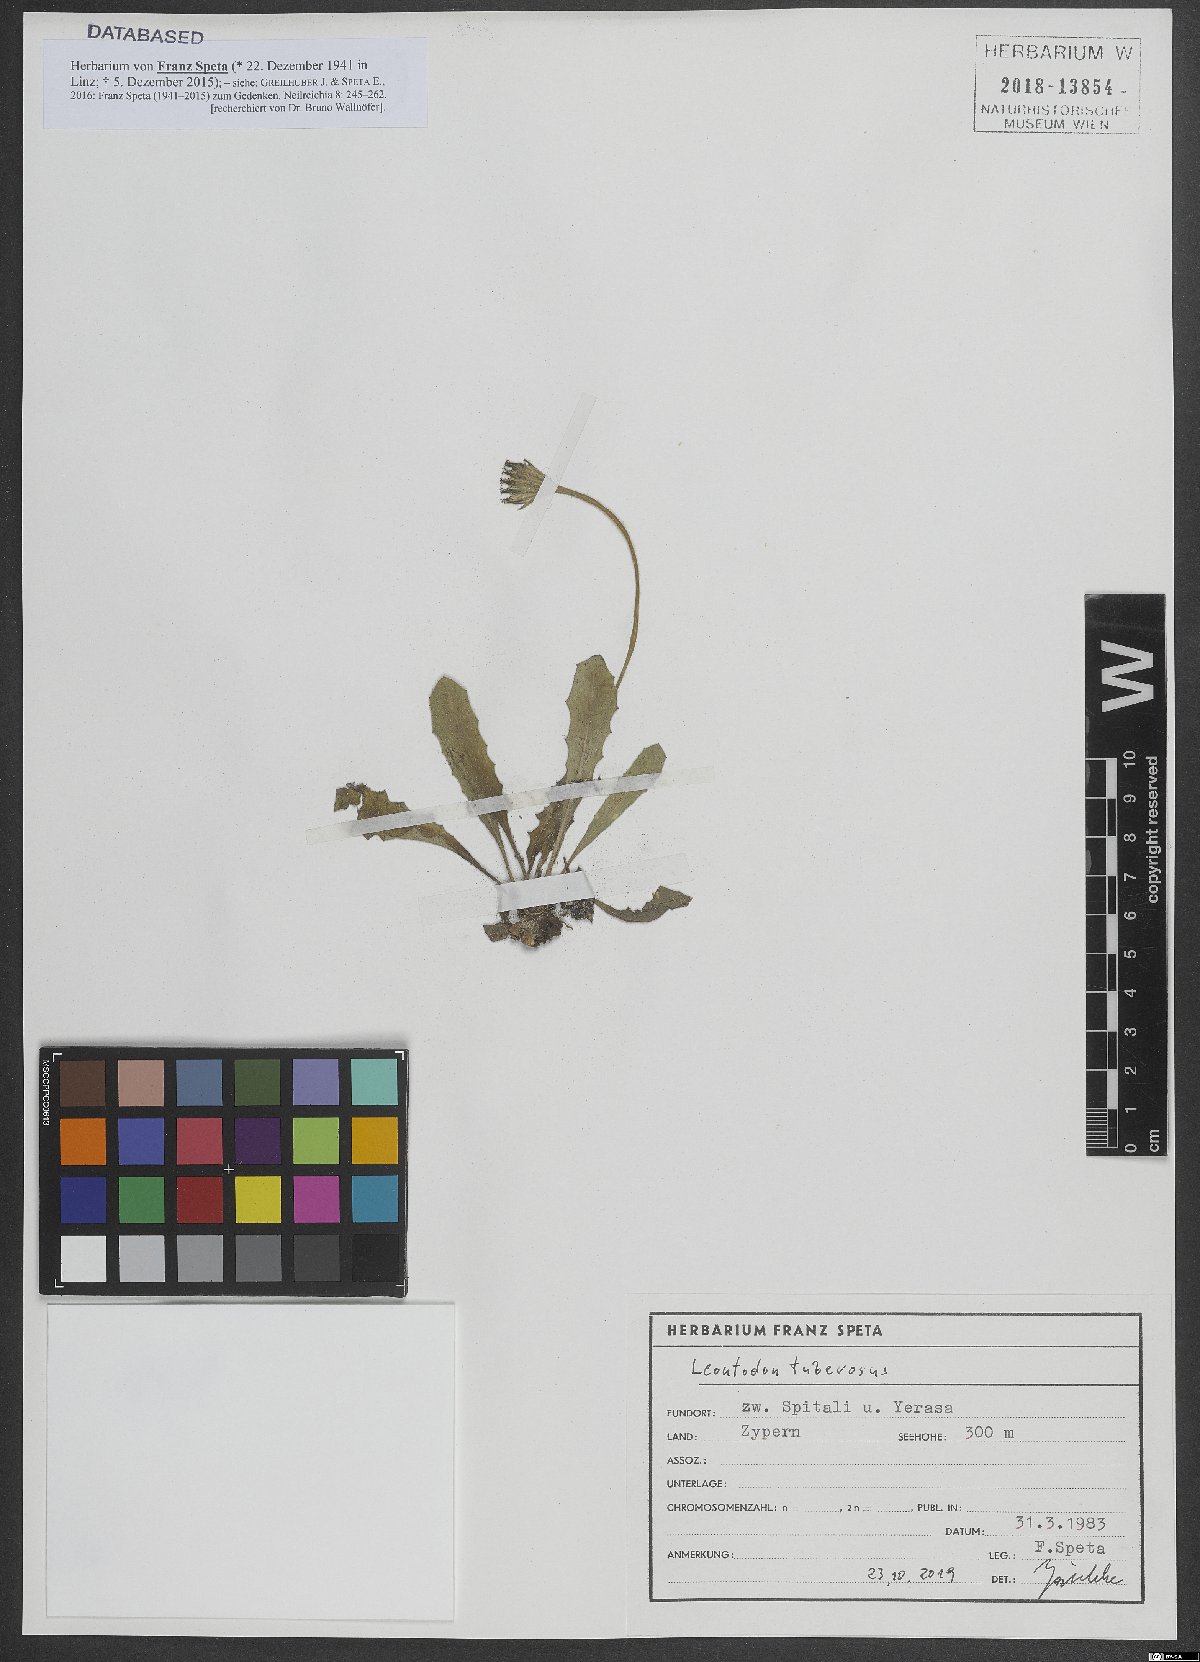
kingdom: Plantae
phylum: Tracheophyta
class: Magnoliopsida
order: Asterales
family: Asteraceae
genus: Thrincia
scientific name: Thrincia tuberosa
